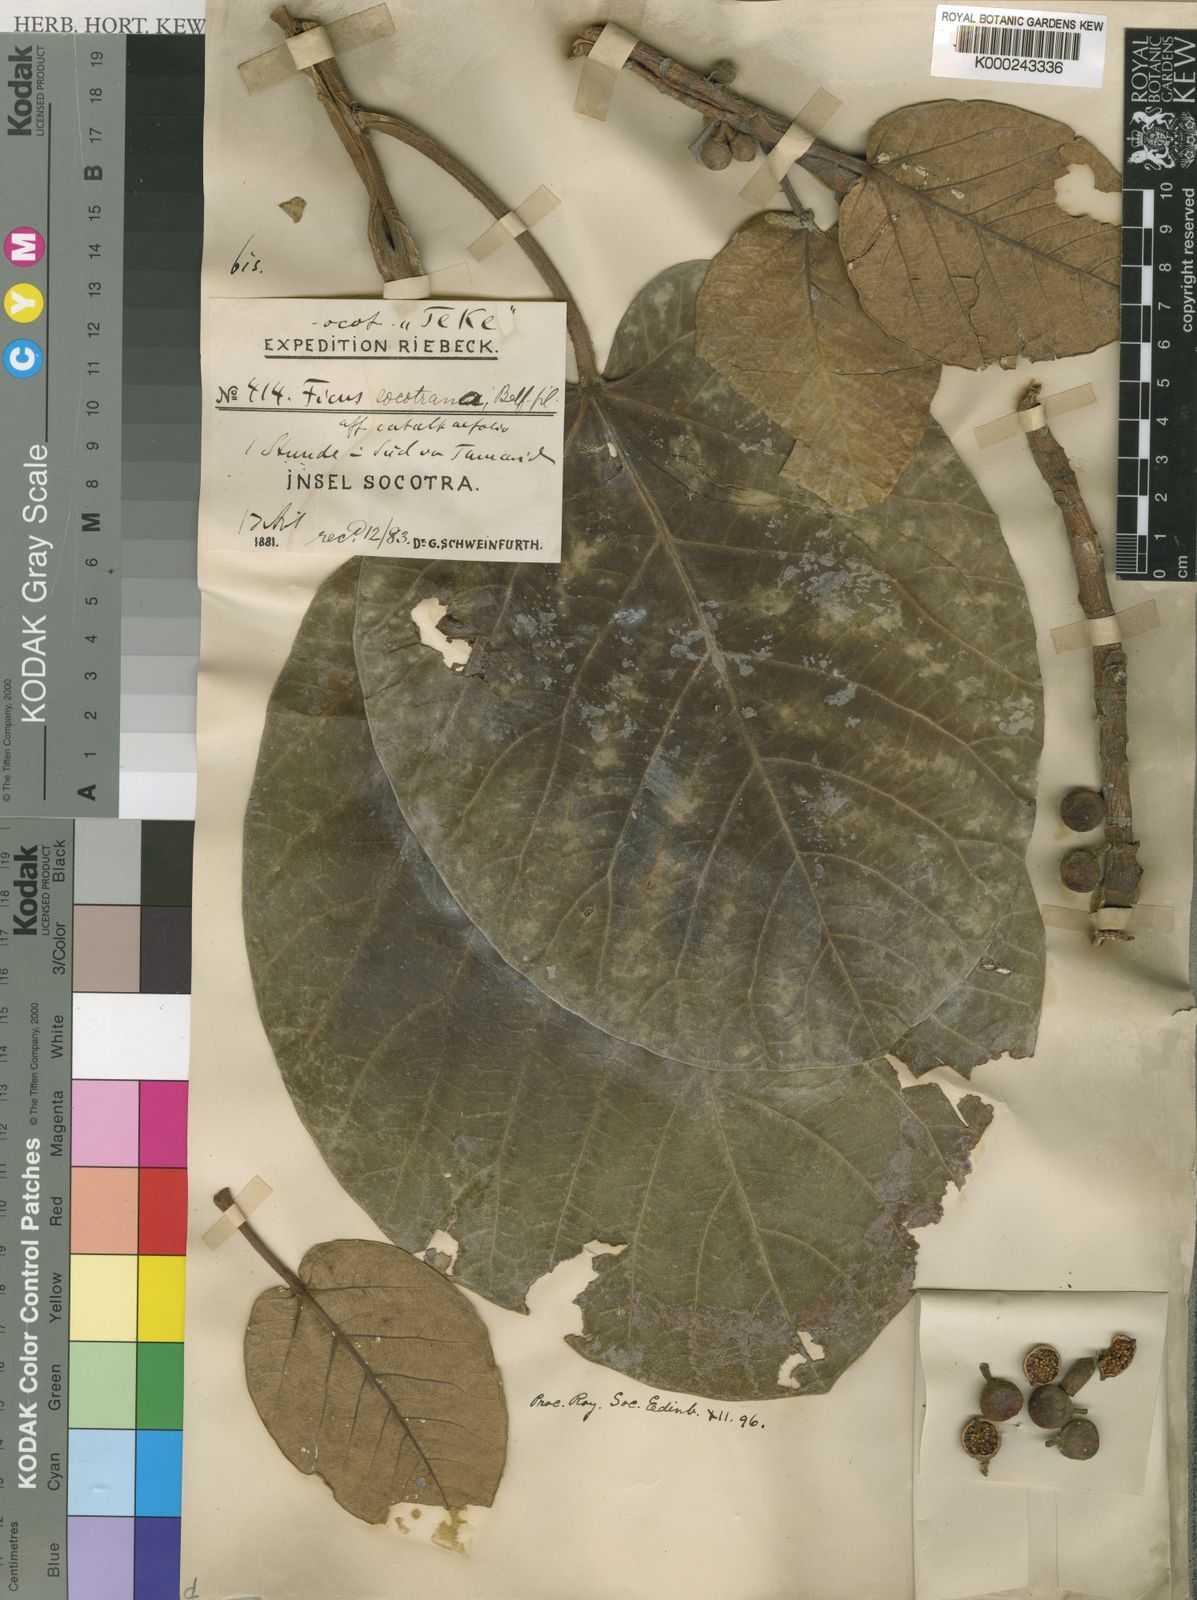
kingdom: Plantae
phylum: Tracheophyta
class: Magnoliopsida
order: Rosales
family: Moraceae
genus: Ficus
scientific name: Ficus vasta
